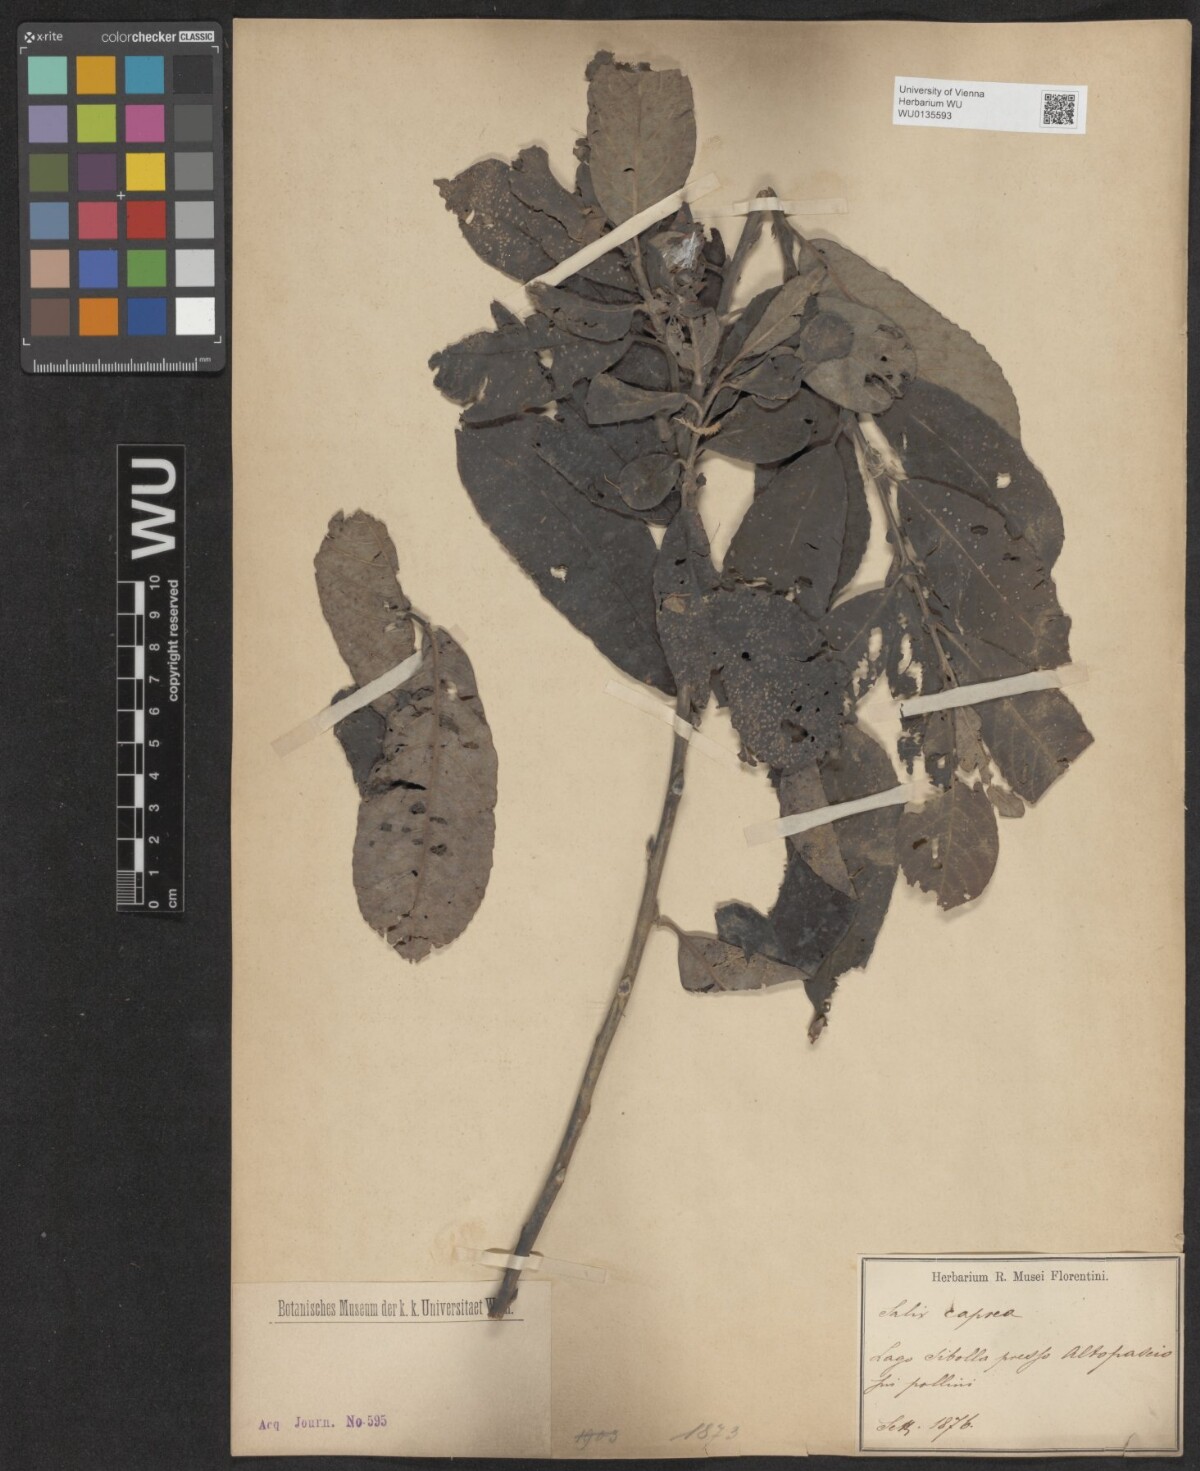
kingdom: Plantae
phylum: Tracheophyta
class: Magnoliopsida
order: Malpighiales
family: Salicaceae
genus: Salix
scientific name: Salix caprea
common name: Goat willow
